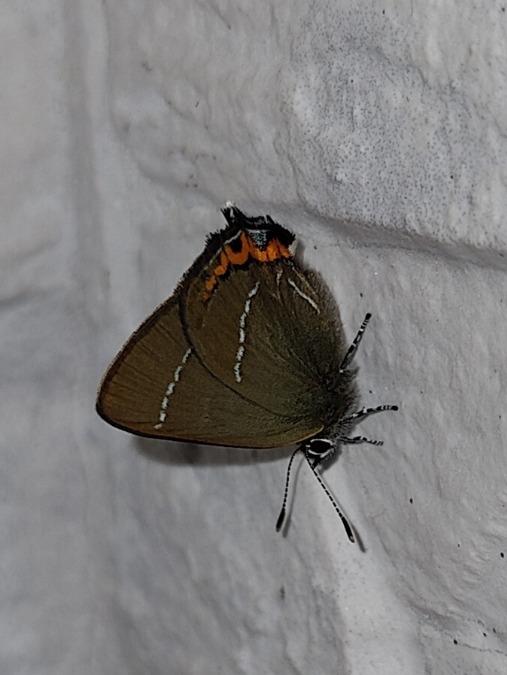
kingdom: Animalia
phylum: Arthropoda
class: Insecta
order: Lepidoptera
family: Lycaenidae
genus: Satyrium
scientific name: Satyrium w-album
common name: Det hvide W
